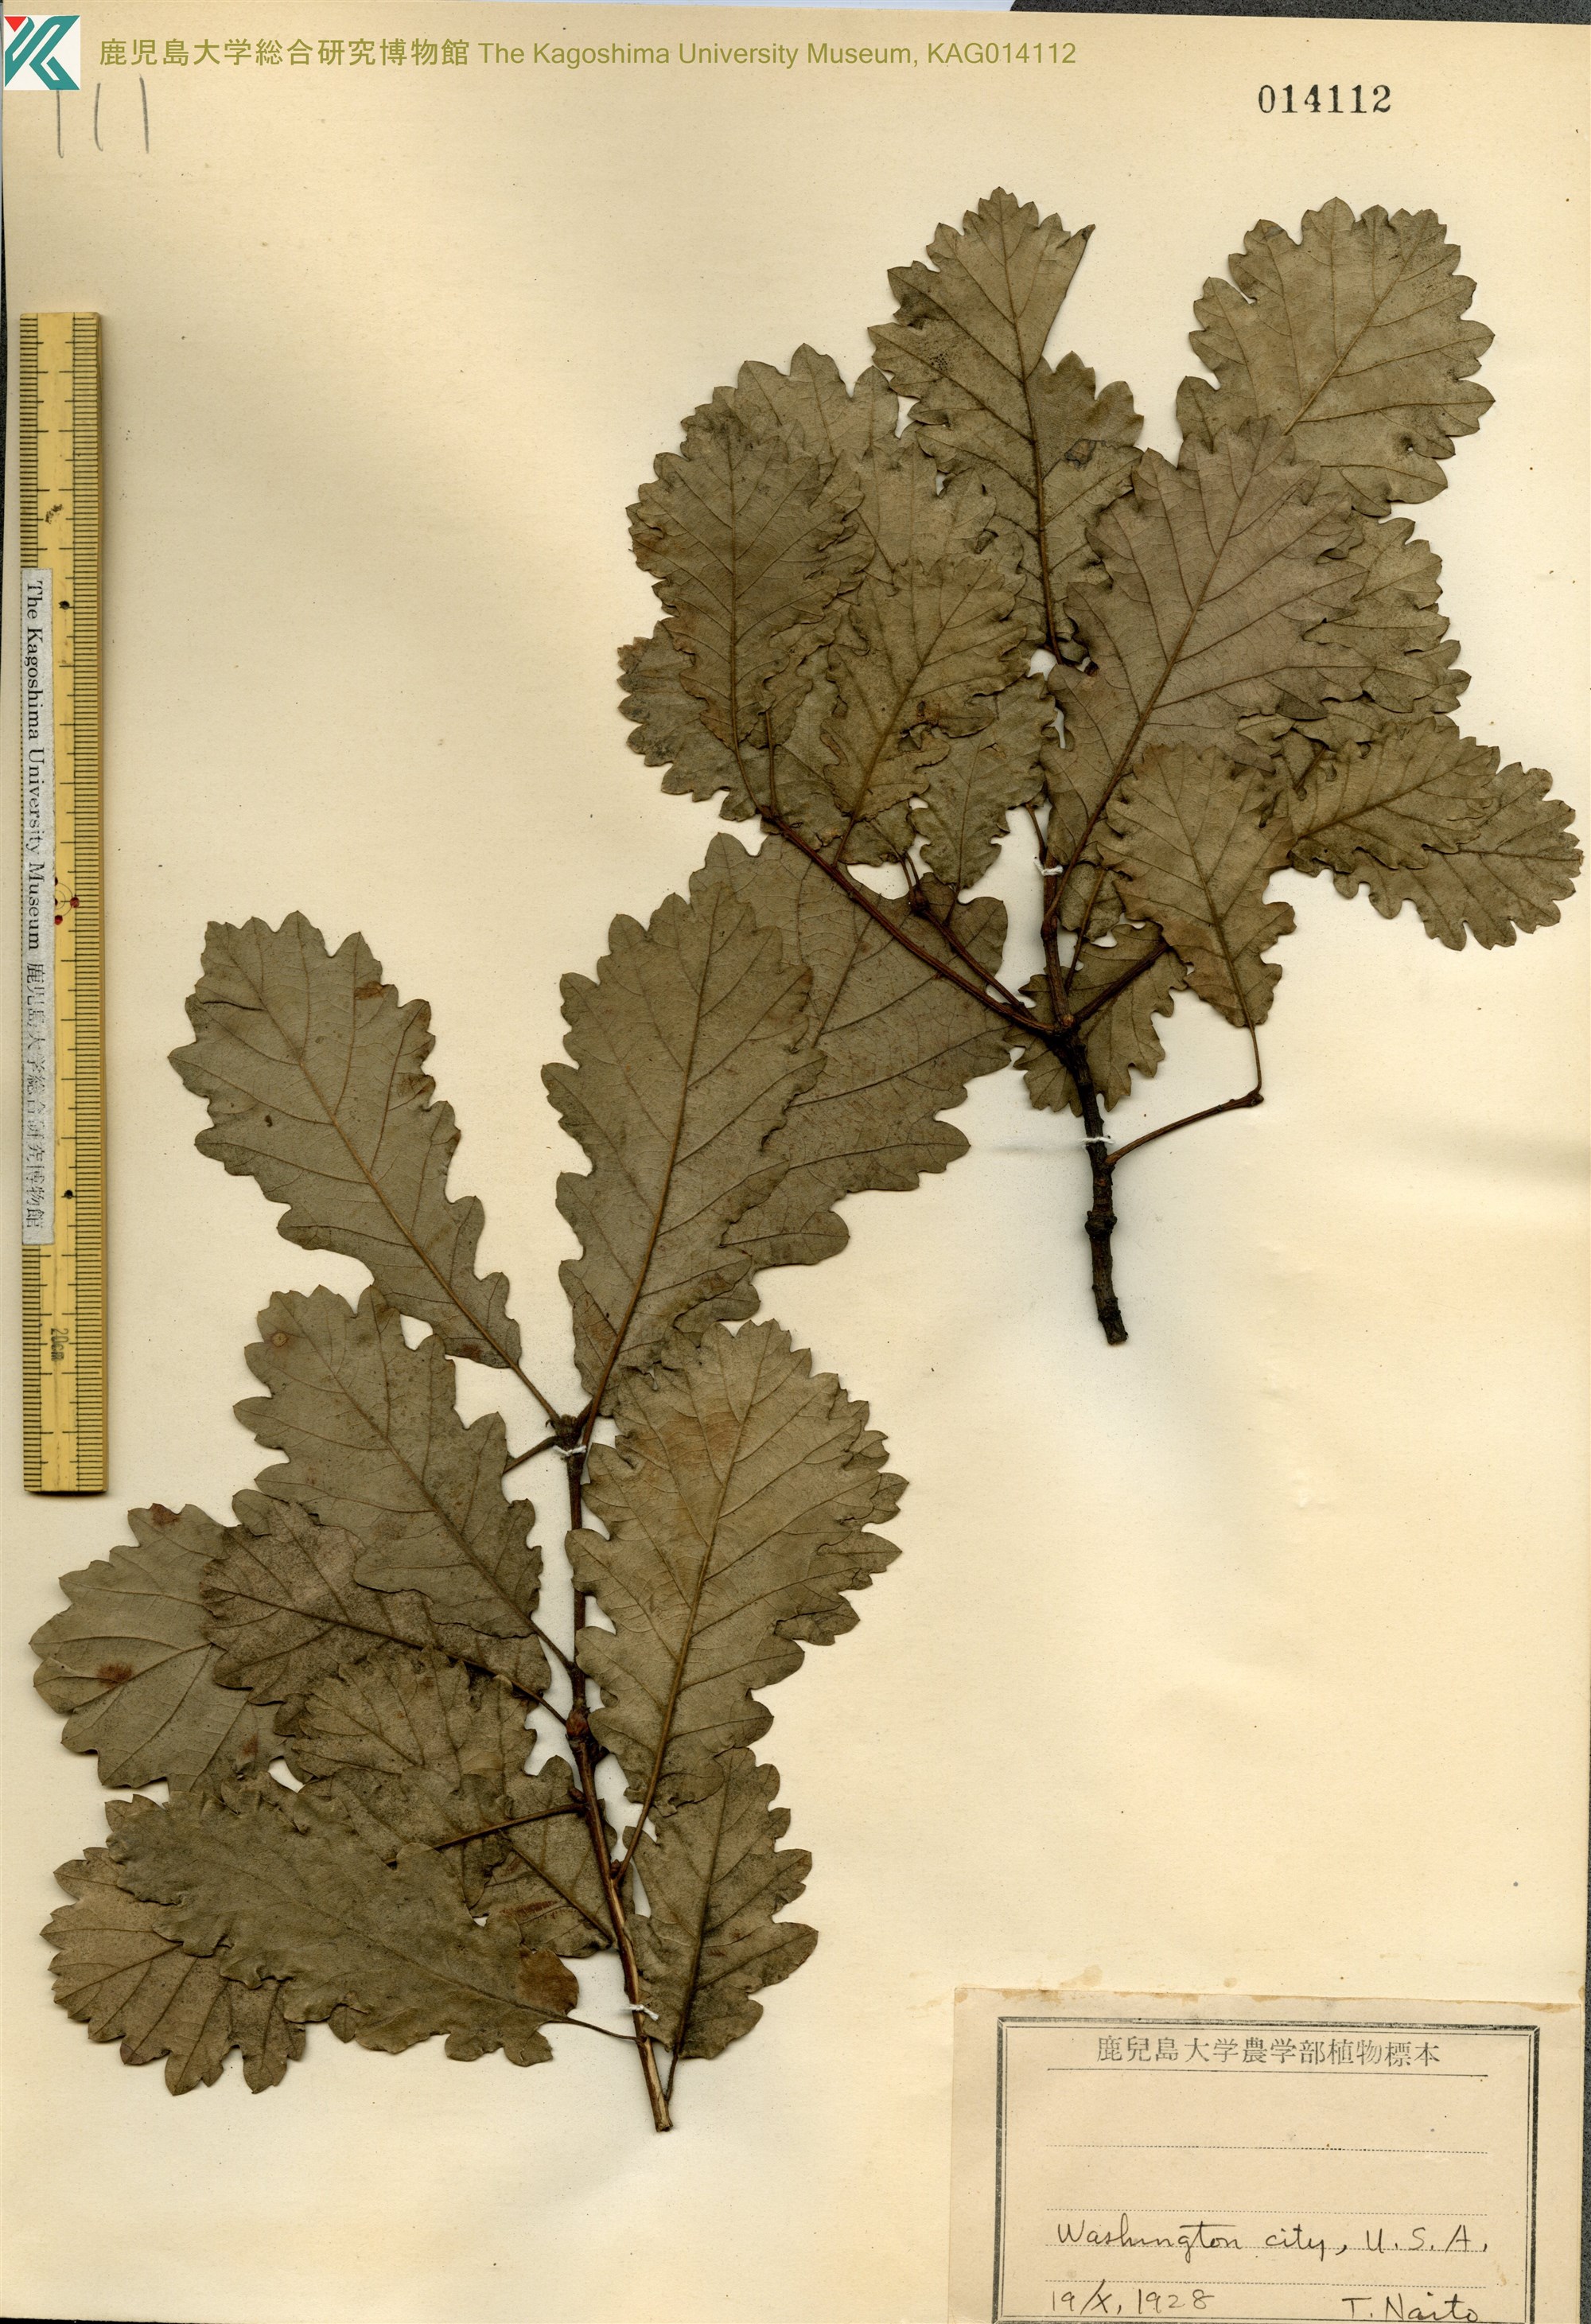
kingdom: Plantae
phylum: Tracheophyta
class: Magnoliopsida
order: Fagales
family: Fagaceae
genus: Quercus
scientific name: Quercus pubescens
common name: Downy oak
